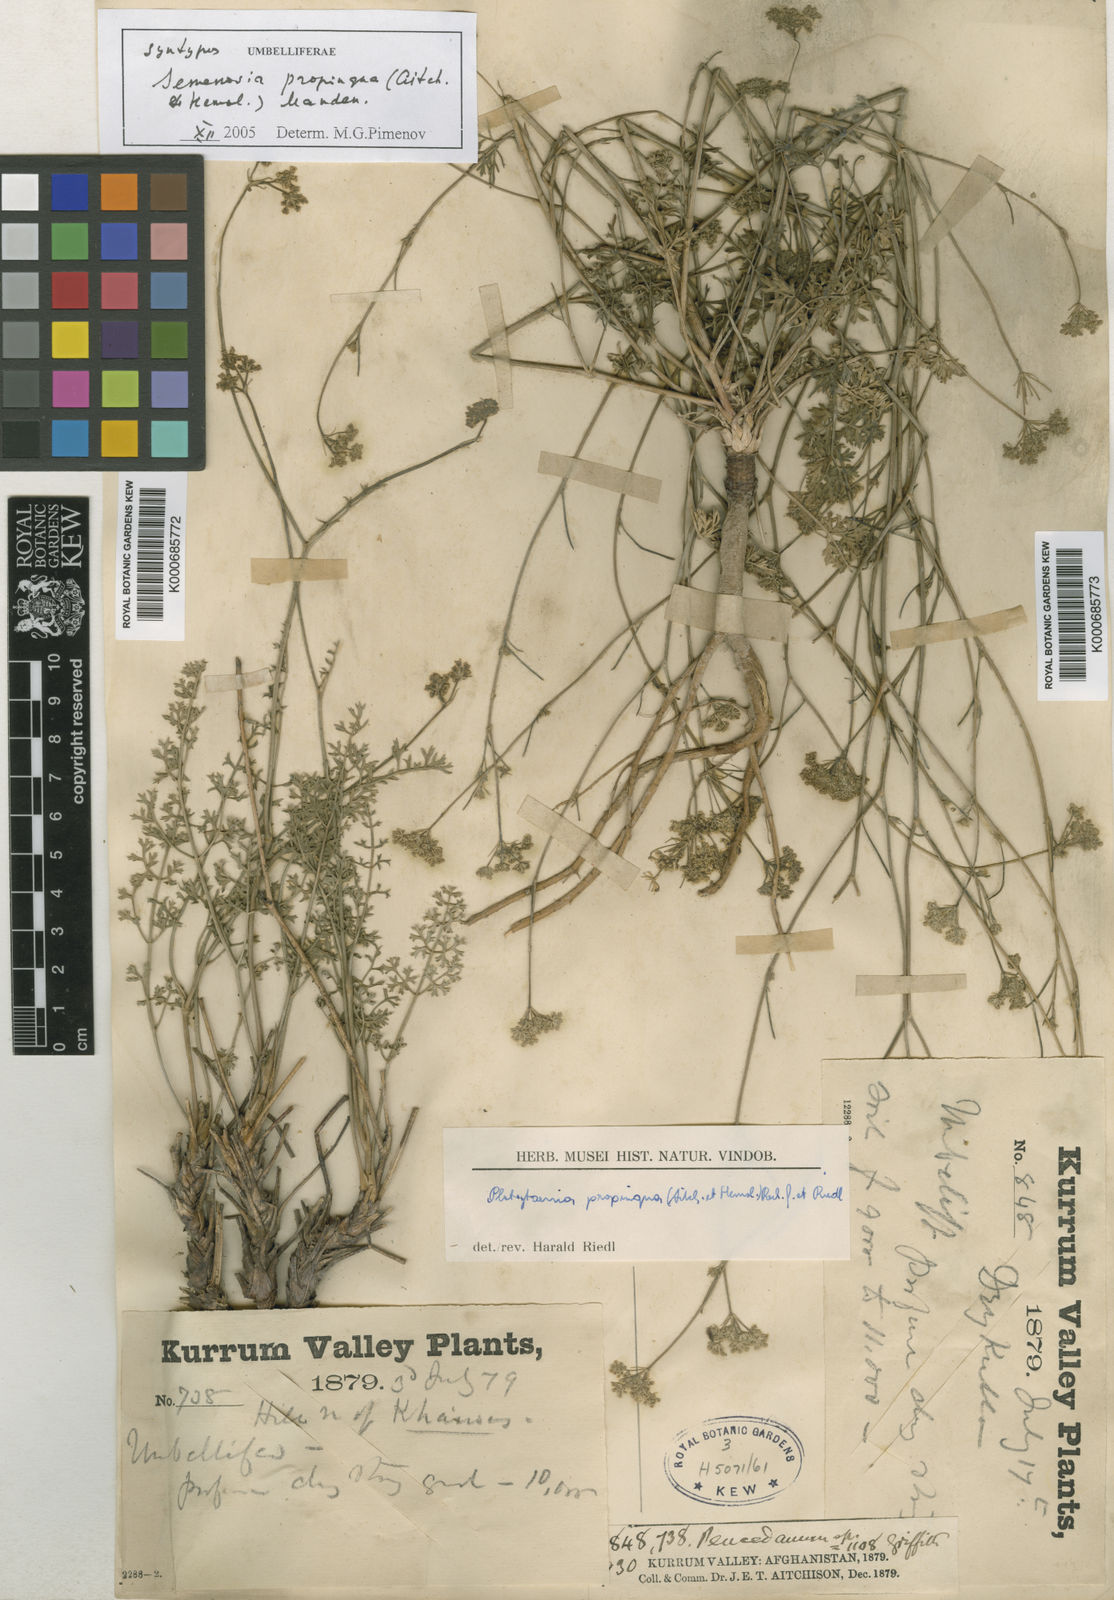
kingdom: Plantae
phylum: Tracheophyta
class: Magnoliopsida
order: Apiales
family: Apiaceae
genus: Semenovia
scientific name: Semenovia propinqua
